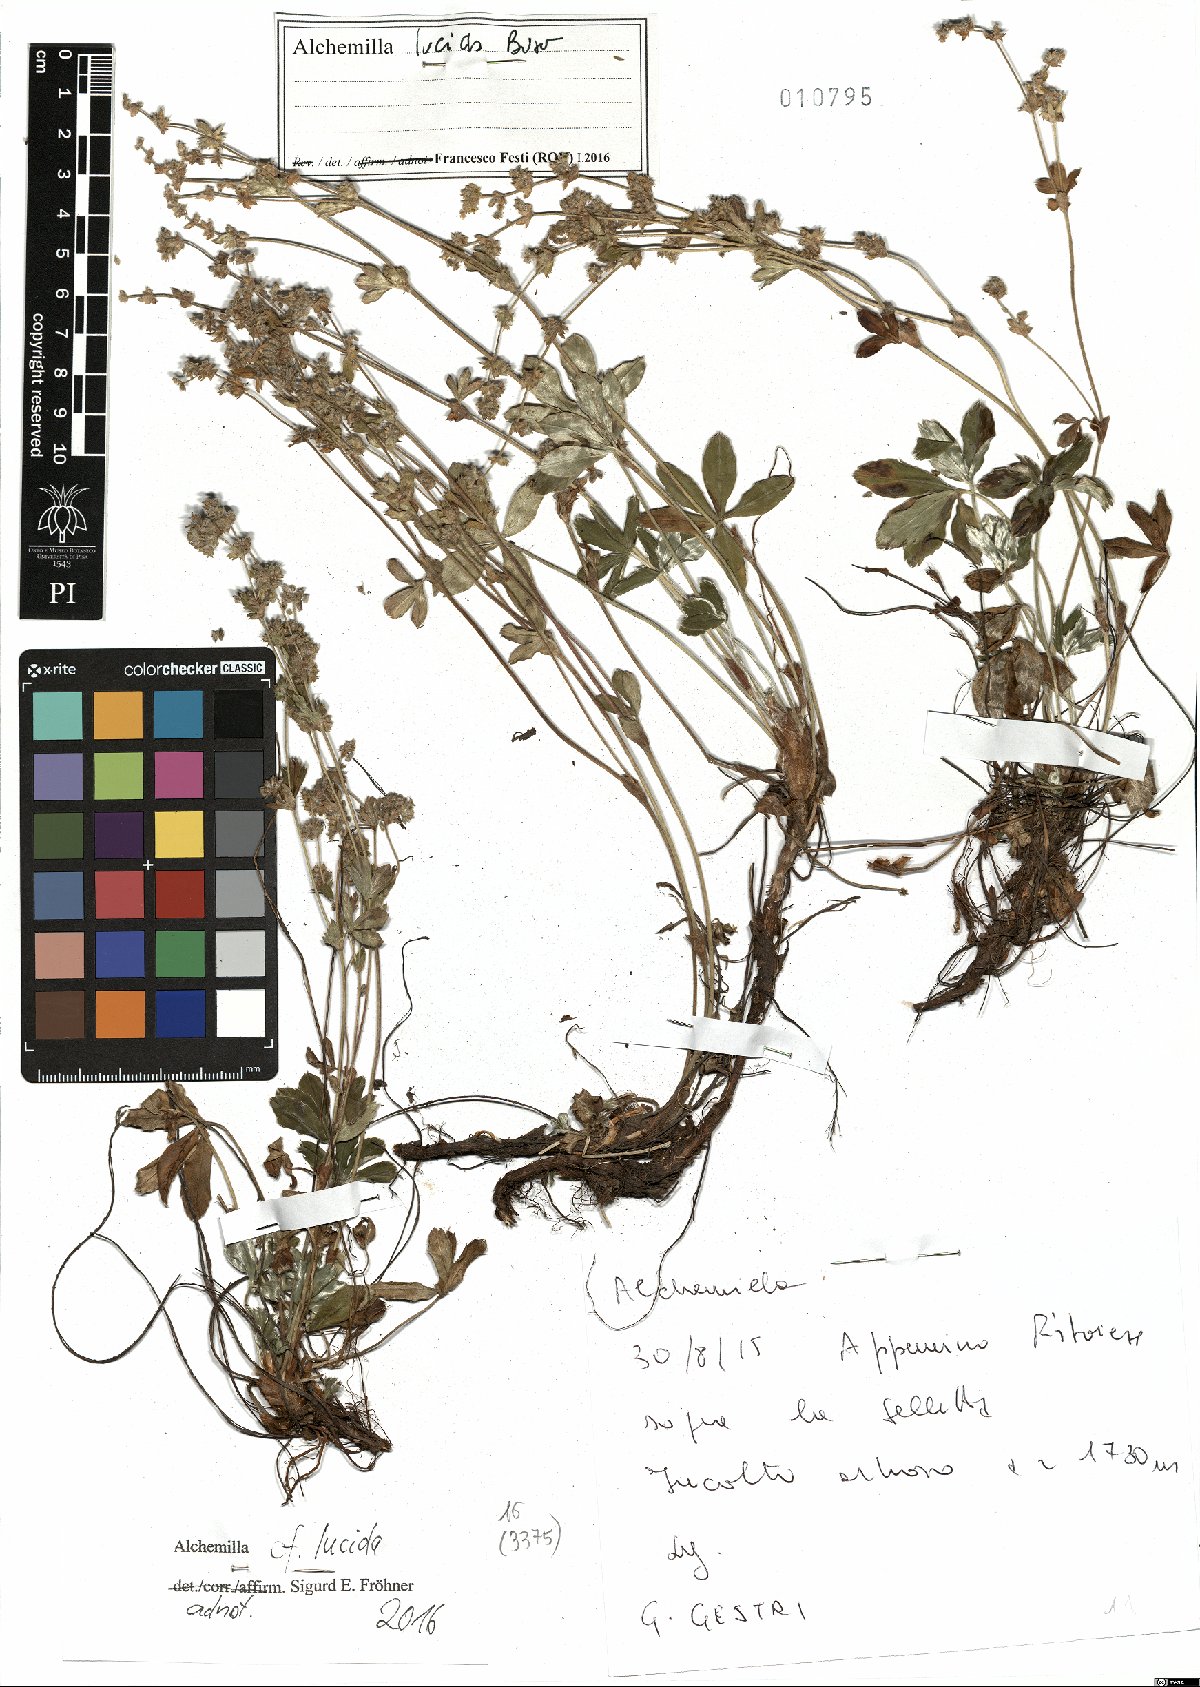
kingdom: Plantae
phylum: Tracheophyta
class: Magnoliopsida
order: Rosales
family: Rosaceae
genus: Alchemilla
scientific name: Alchemilla lucida
